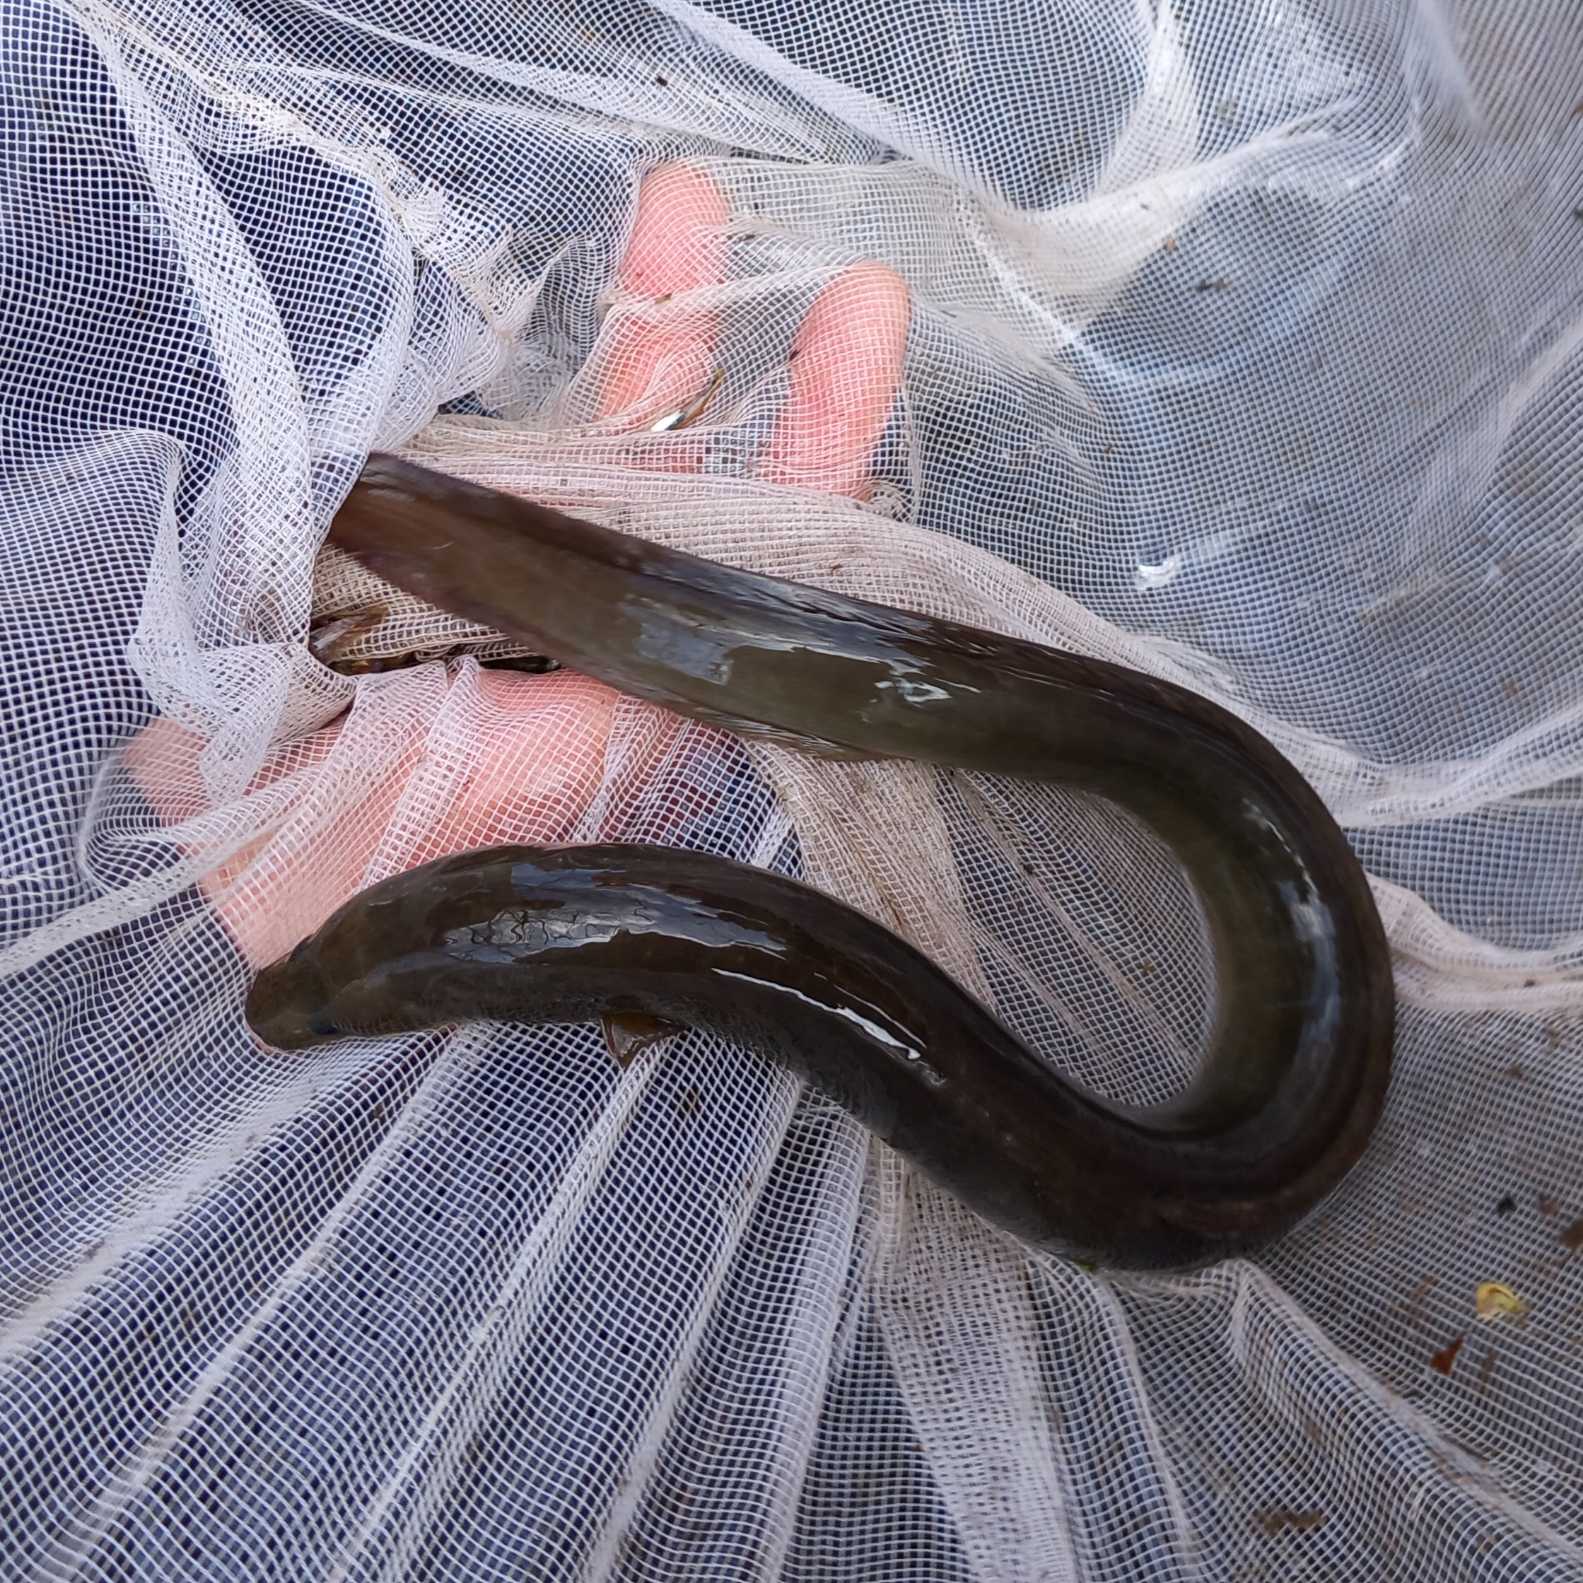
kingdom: Animalia
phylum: Chordata
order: Anguilliformes
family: Anguillidae
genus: Anguilla
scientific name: Anguilla anguilla
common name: Europæisk ål
